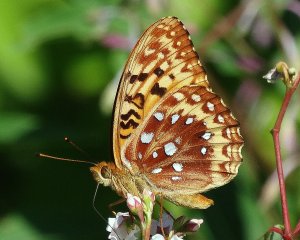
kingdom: Animalia
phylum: Arthropoda
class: Insecta
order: Lepidoptera
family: Nymphalidae
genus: Speyeria
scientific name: Speyeria cybele
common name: Great Spangled Fritillary
